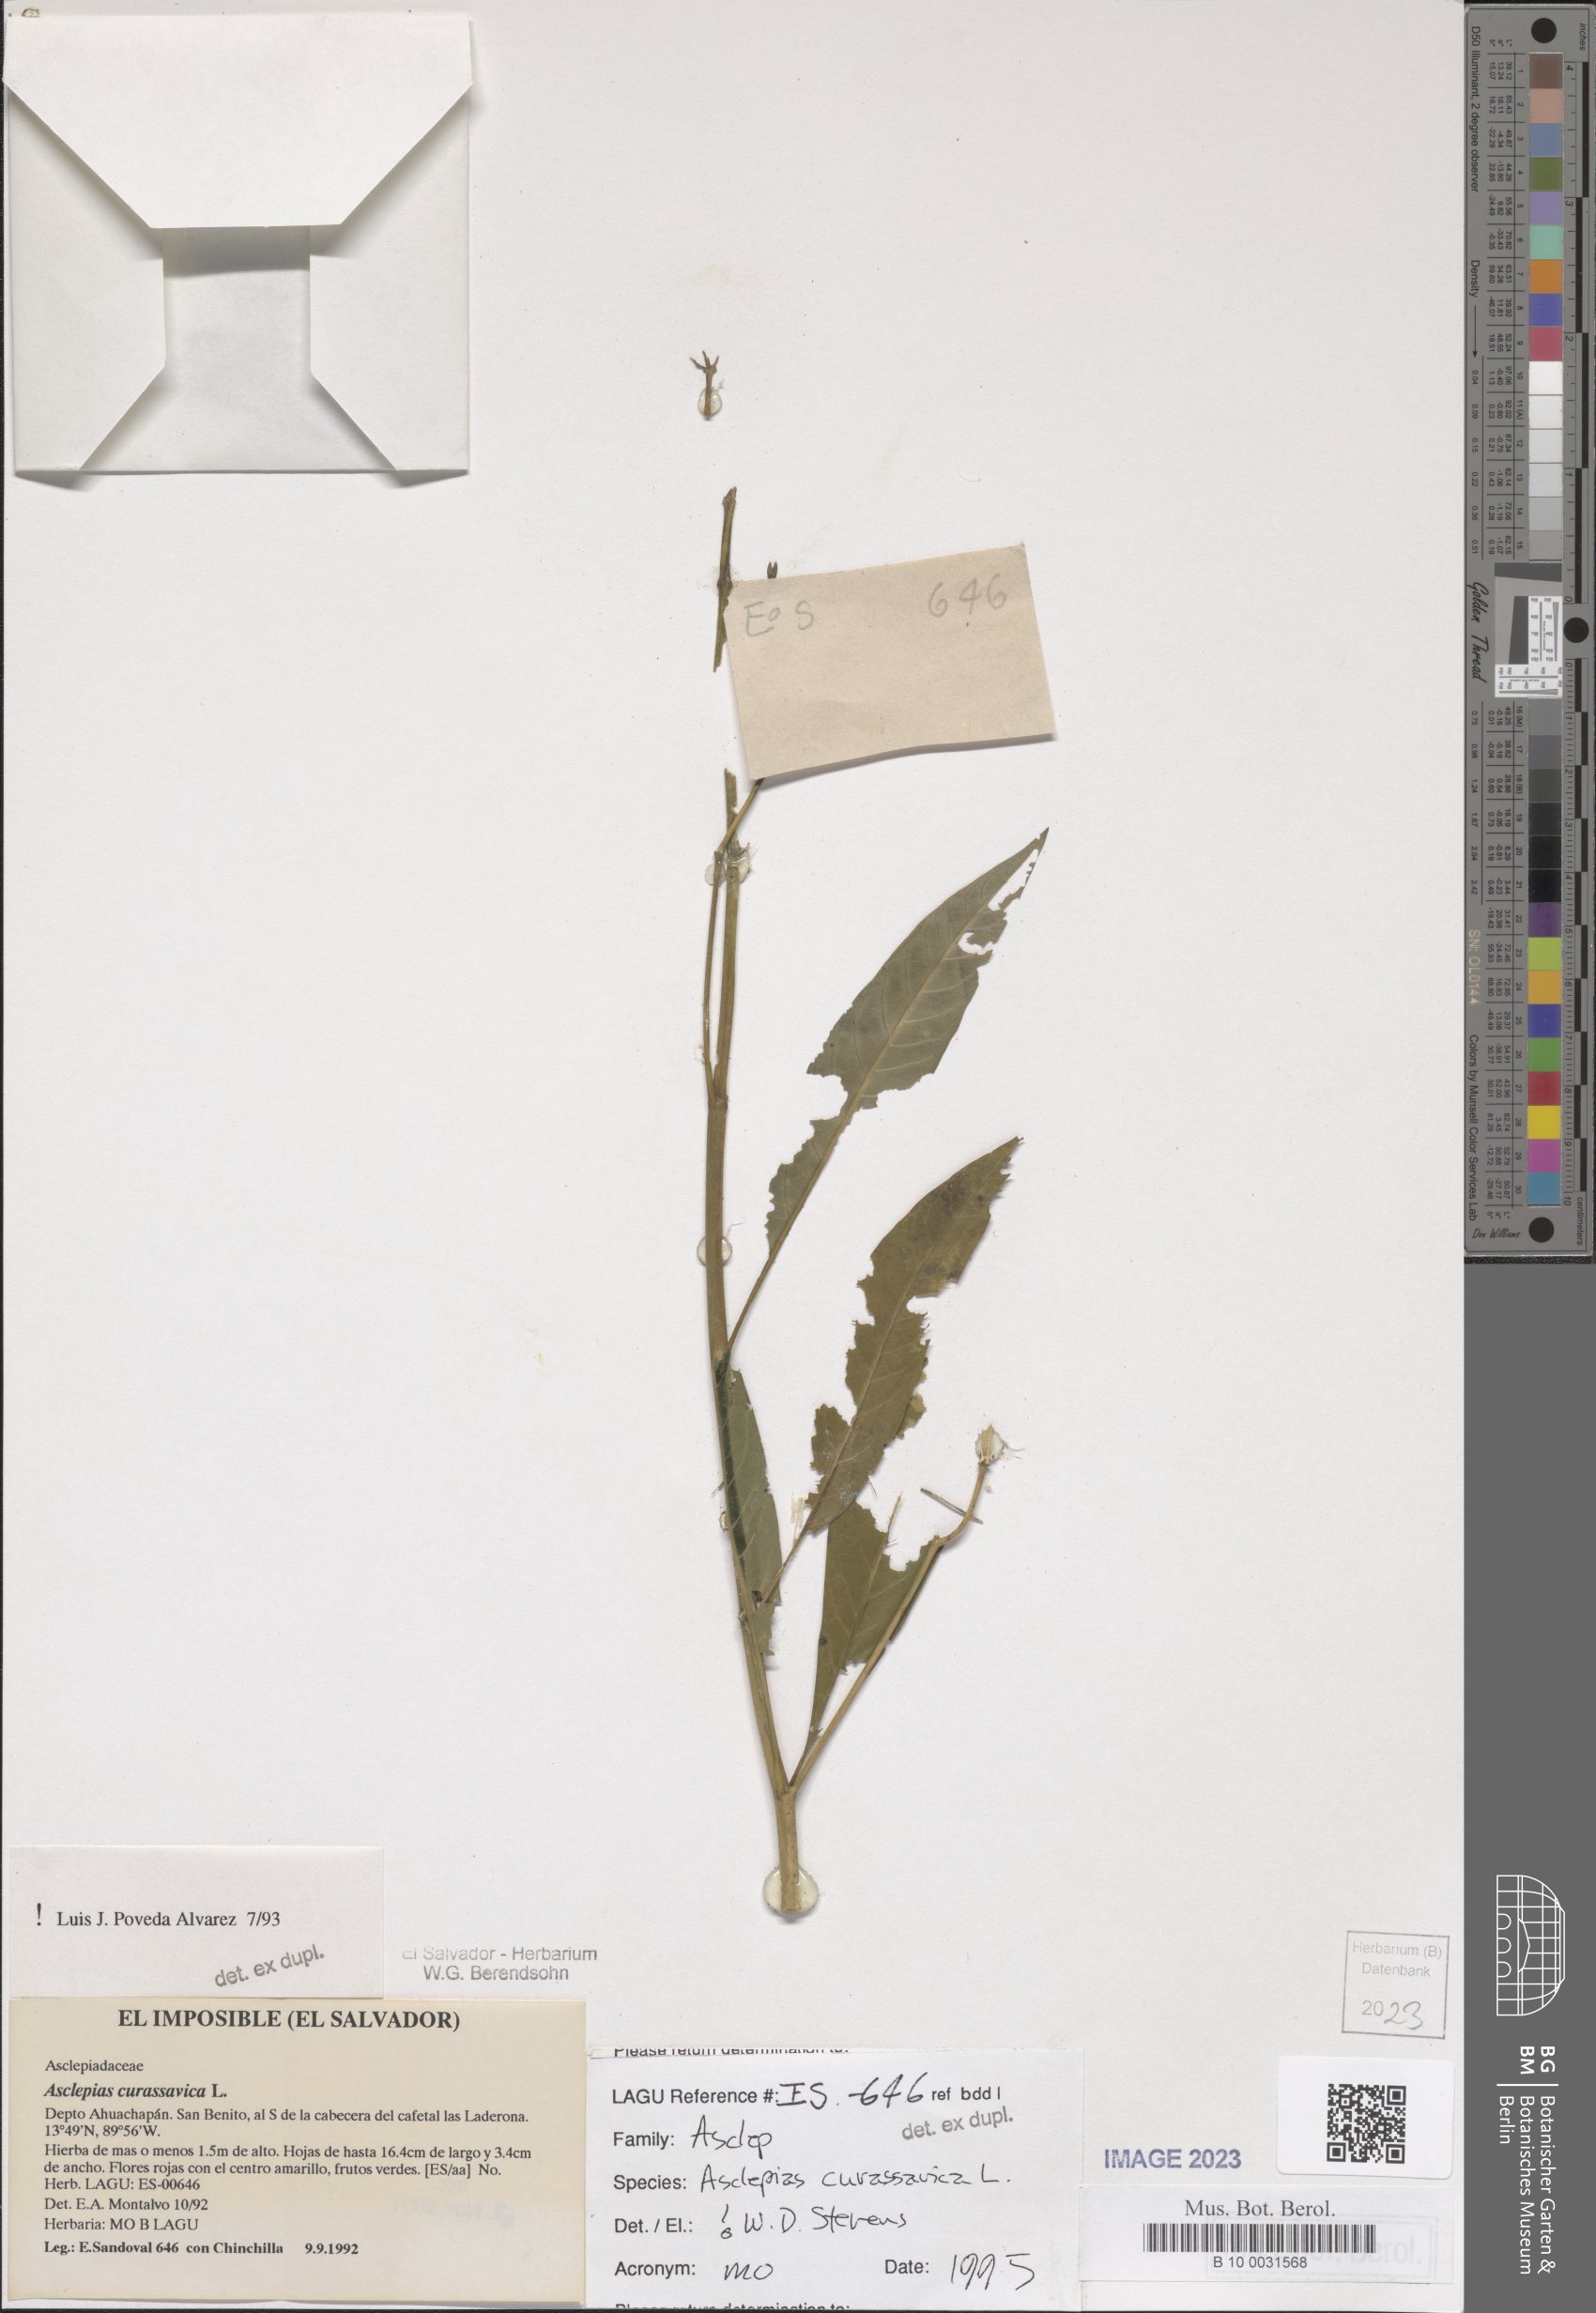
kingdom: Plantae
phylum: Tracheophyta
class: Magnoliopsida
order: Gentianales
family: Apocynaceae
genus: Asclepias
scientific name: Asclepias curassavica
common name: Bloodflower
